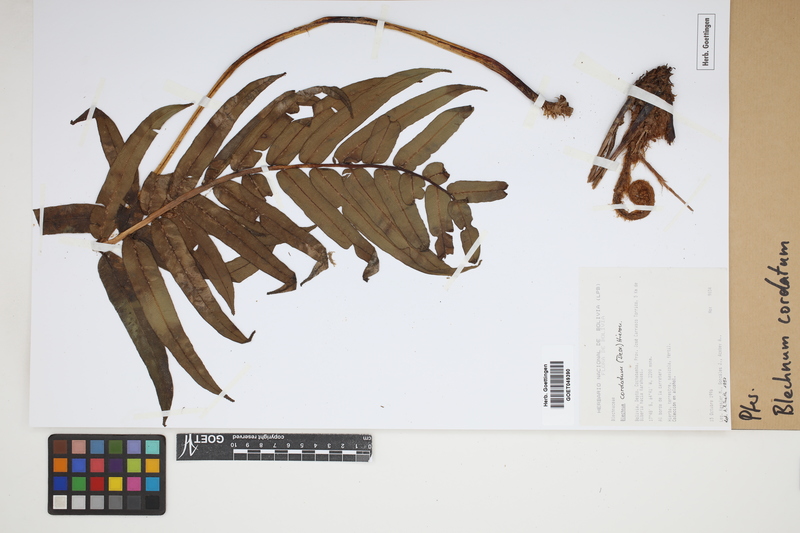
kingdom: Plantae
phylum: Tracheophyta
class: Polypodiopsida
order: Polypodiales
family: Blechnaceae
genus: Parablechnum
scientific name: Parablechnum cordatum
